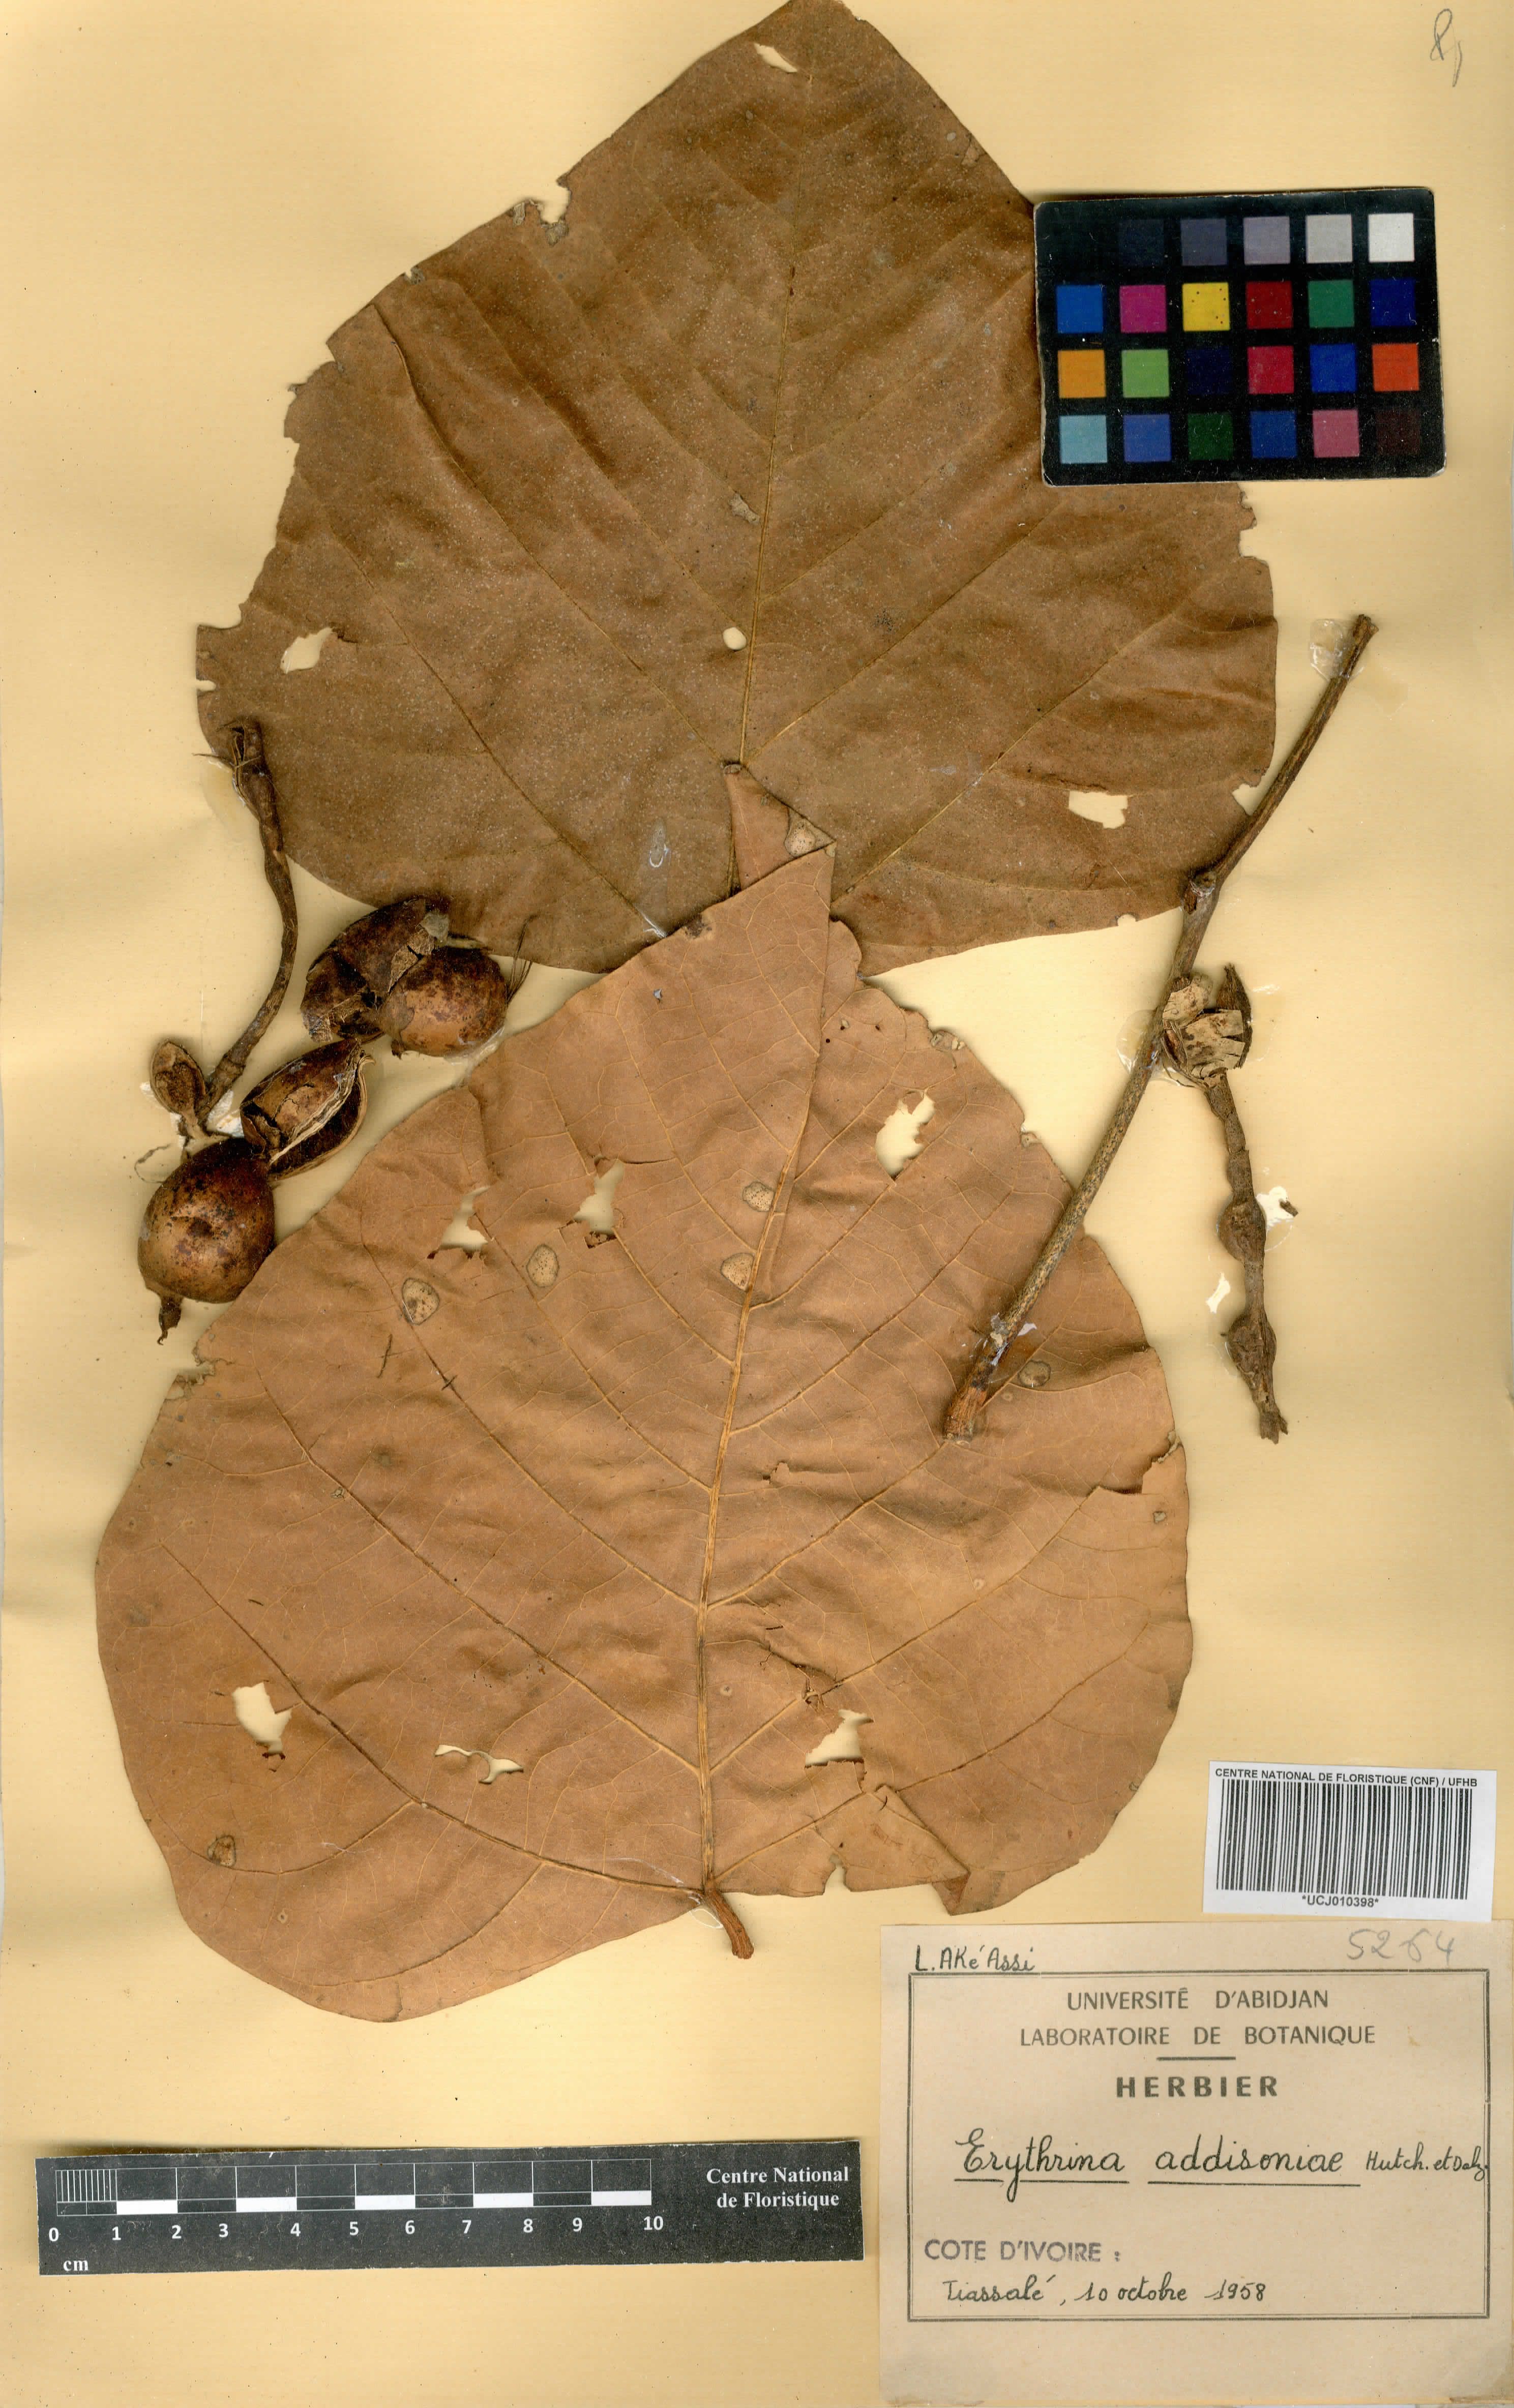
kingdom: Plantae
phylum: Tracheophyta
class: Magnoliopsida
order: Fabales
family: Fabaceae
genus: Erythrina
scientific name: Erythrina addisoniae
